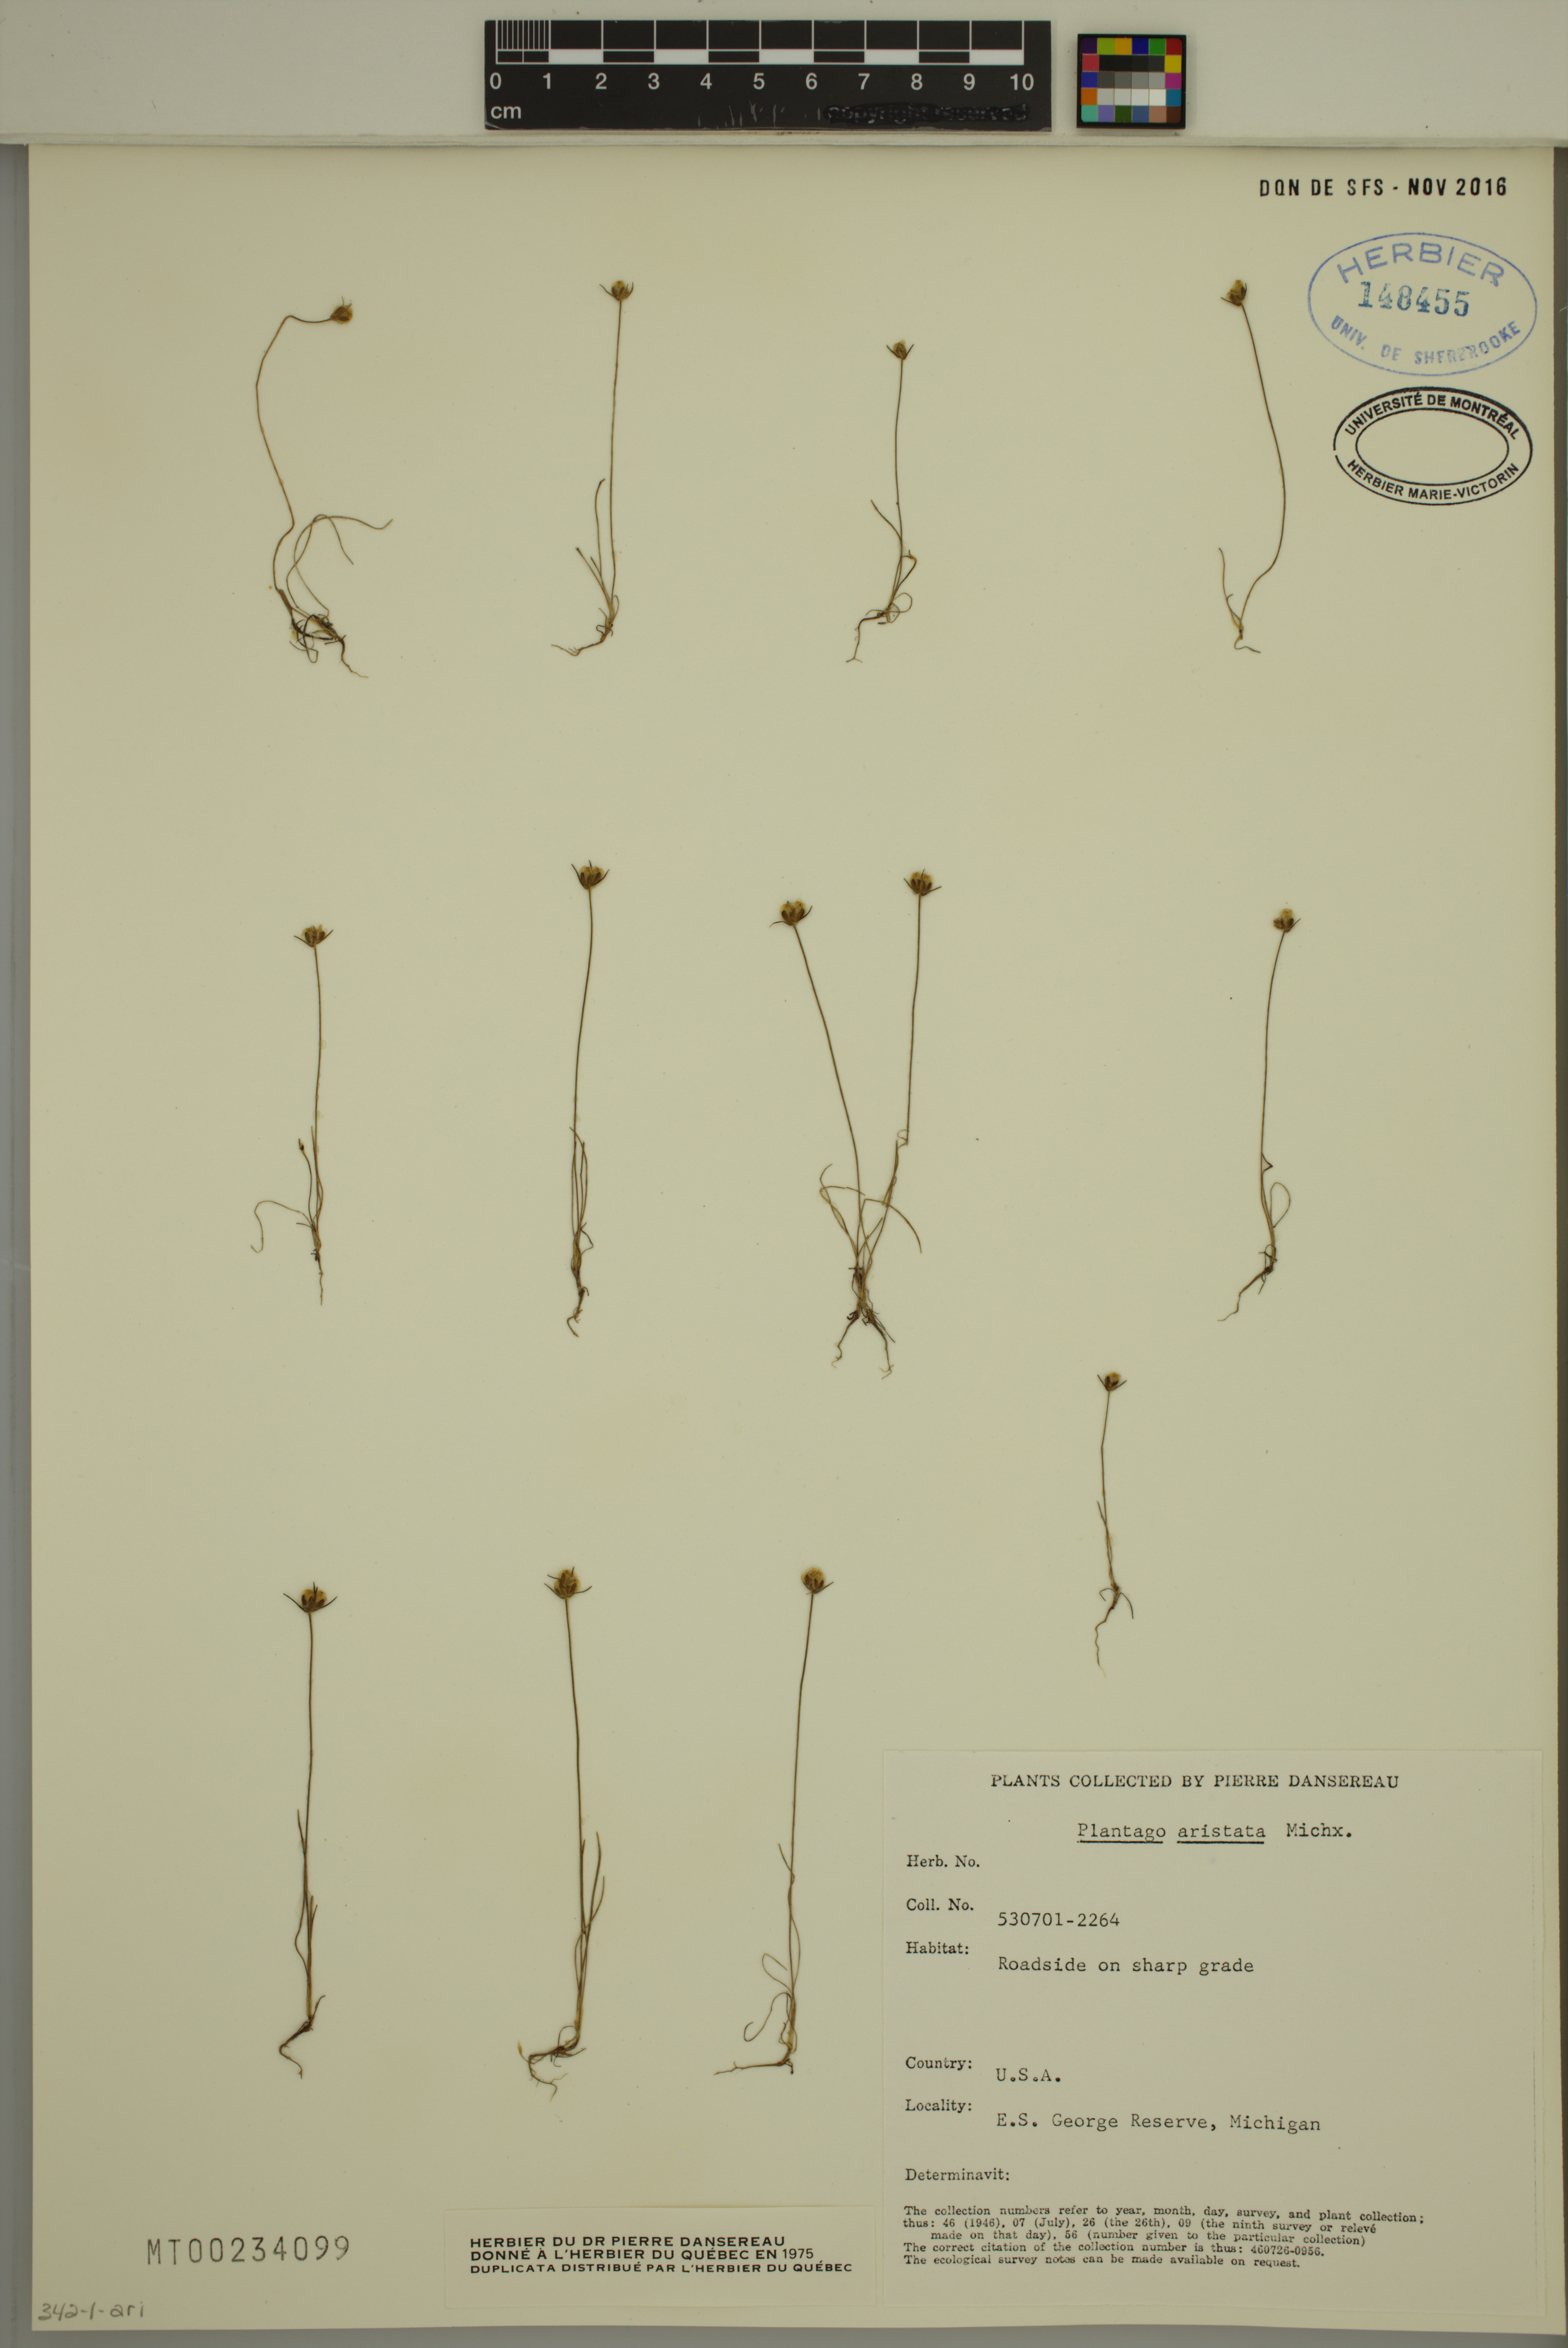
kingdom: Plantae
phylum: Tracheophyta
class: Magnoliopsida
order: Lamiales
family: Plantaginaceae
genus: Plantago
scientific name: Plantago aristata
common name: Bracted plantain
